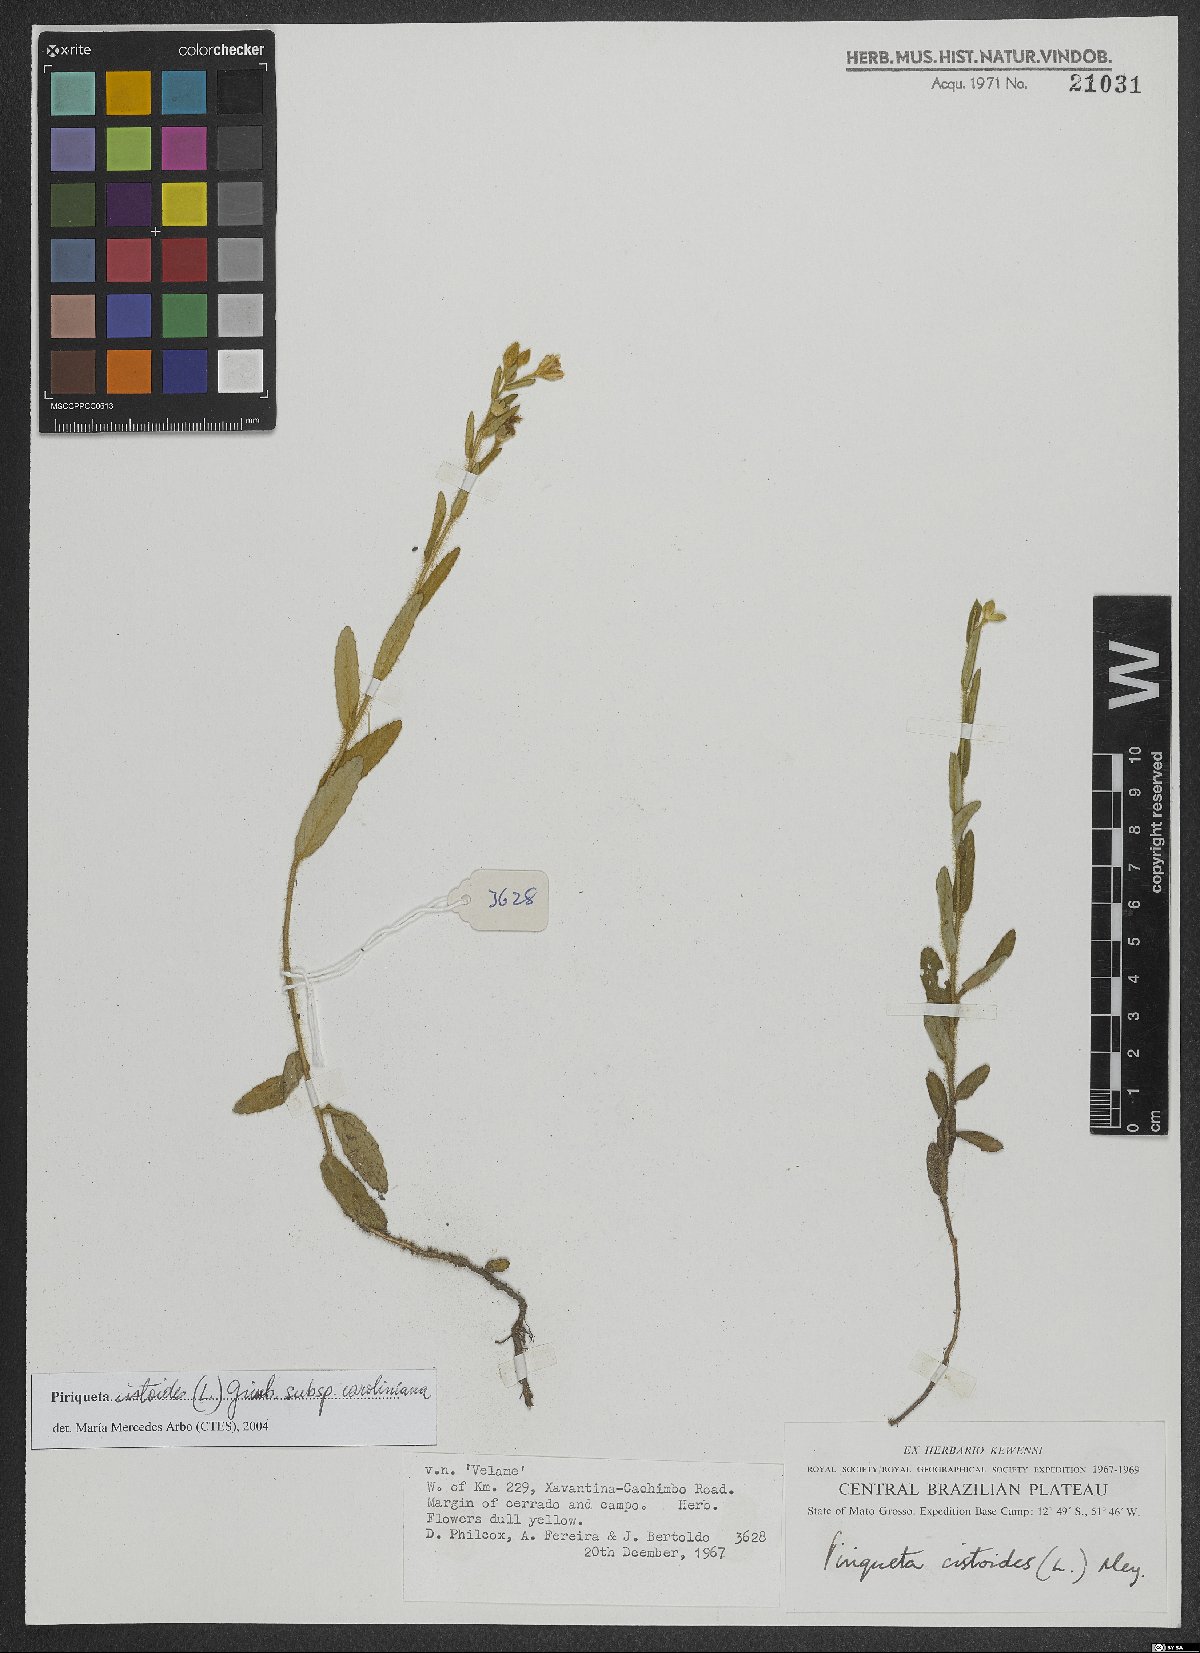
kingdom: Plantae
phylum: Tracheophyta
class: Magnoliopsida
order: Malpighiales
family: Turneraceae
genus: Piriqueta
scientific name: Piriqueta cistoides
